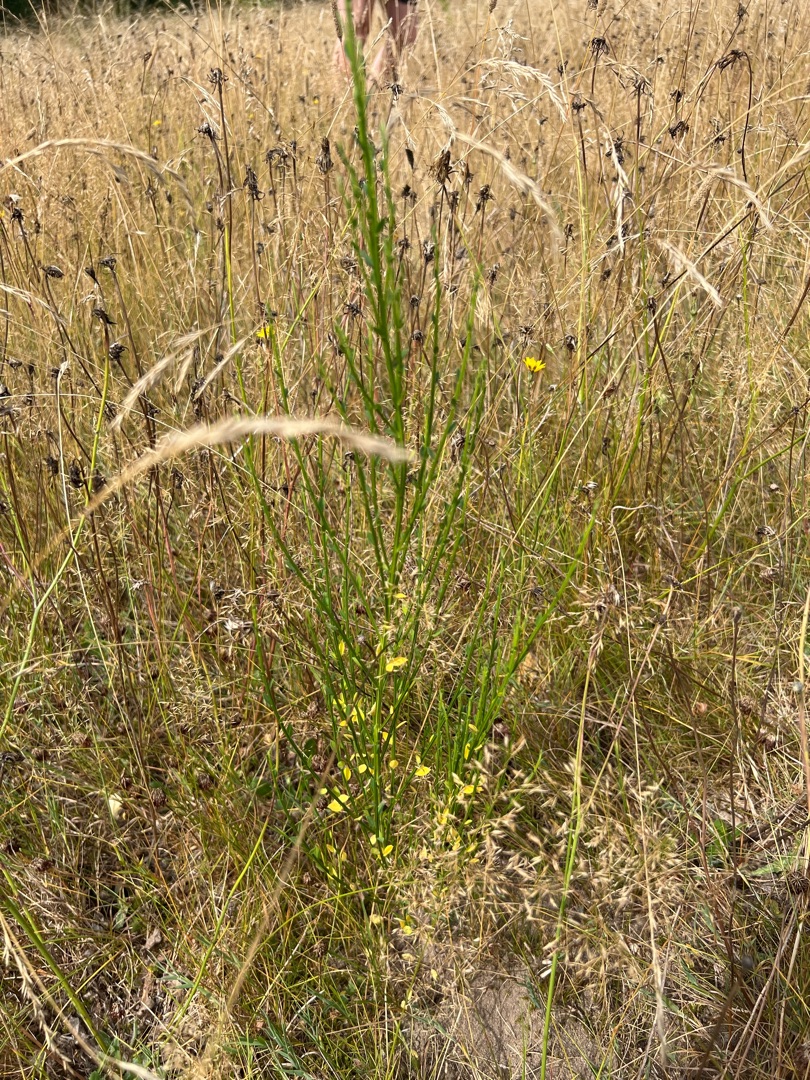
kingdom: Plantae
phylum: Tracheophyta
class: Magnoliopsida
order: Fabales
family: Fabaceae
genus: Cytisus
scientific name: Cytisus scoparius
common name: Almindelig gyvel
